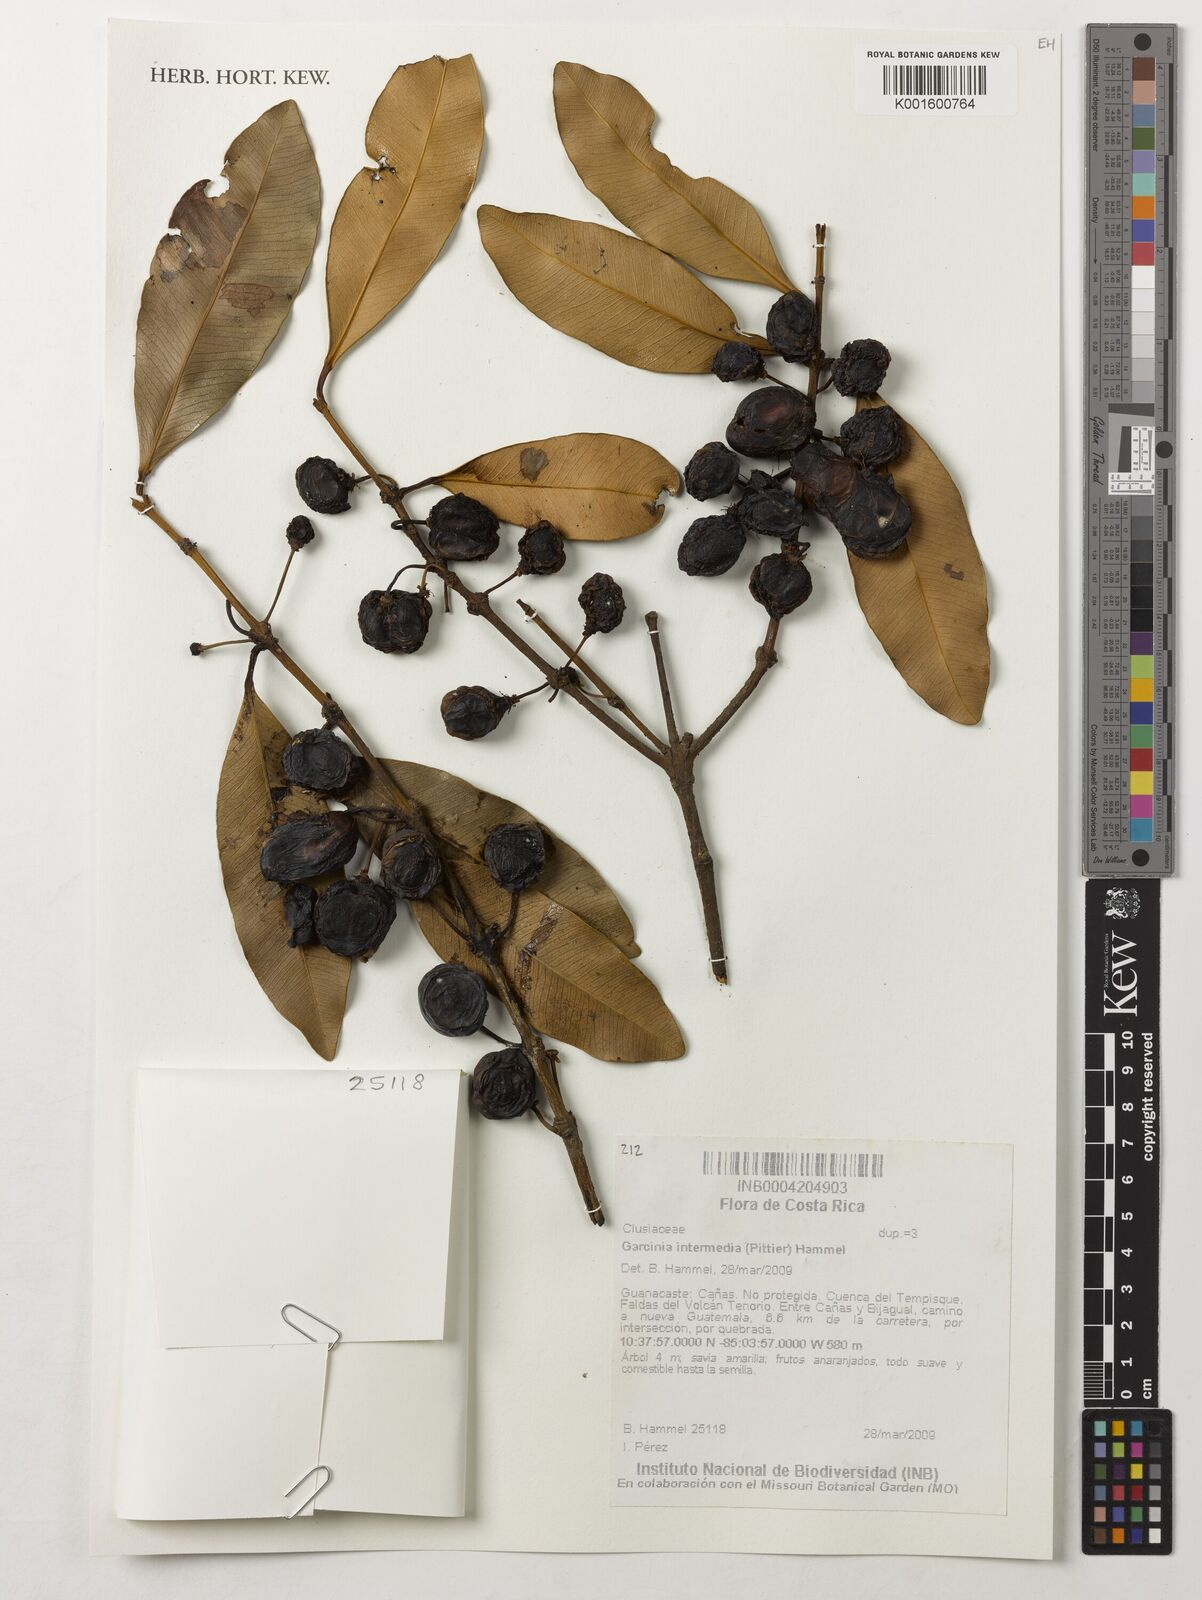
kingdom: Plantae
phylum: Tracheophyta
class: Magnoliopsida
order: Malpighiales
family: Clusiaceae
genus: Garcinia
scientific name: Garcinia intermedia
